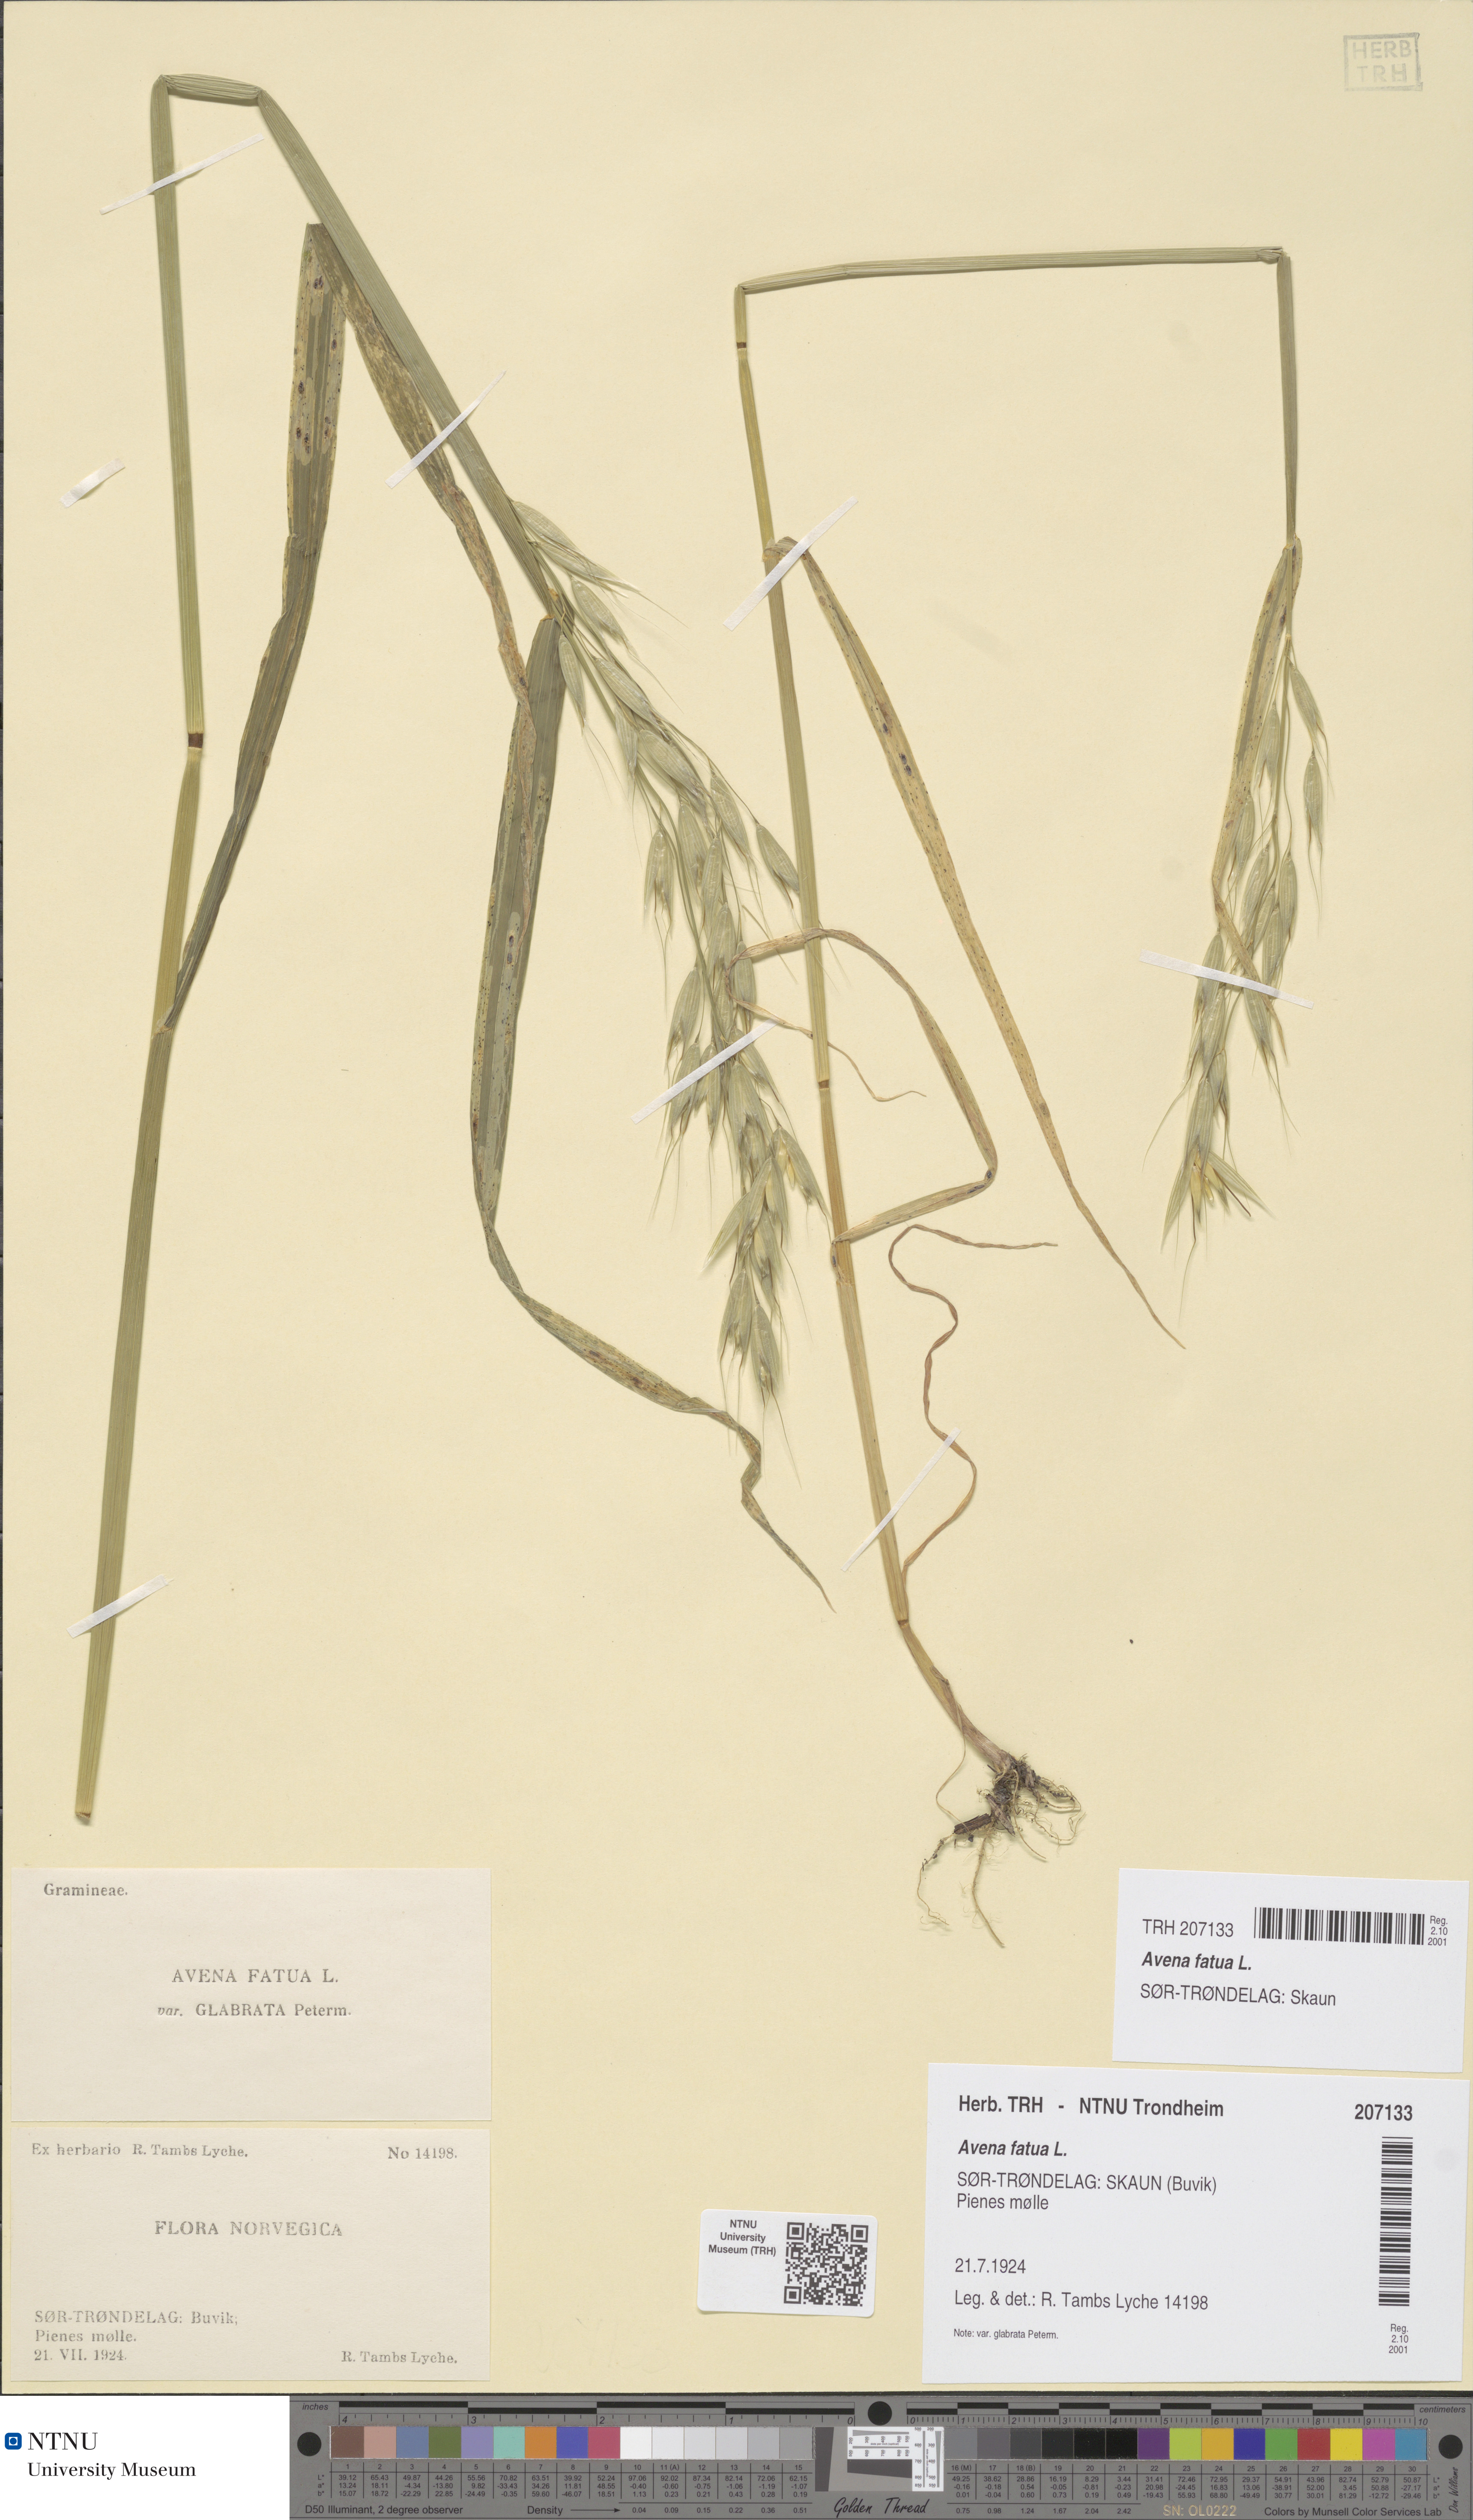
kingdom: Plantae
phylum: Tracheophyta
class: Liliopsida
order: Poales
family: Poaceae
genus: Avena
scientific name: Avena fatua
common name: Wild oat
